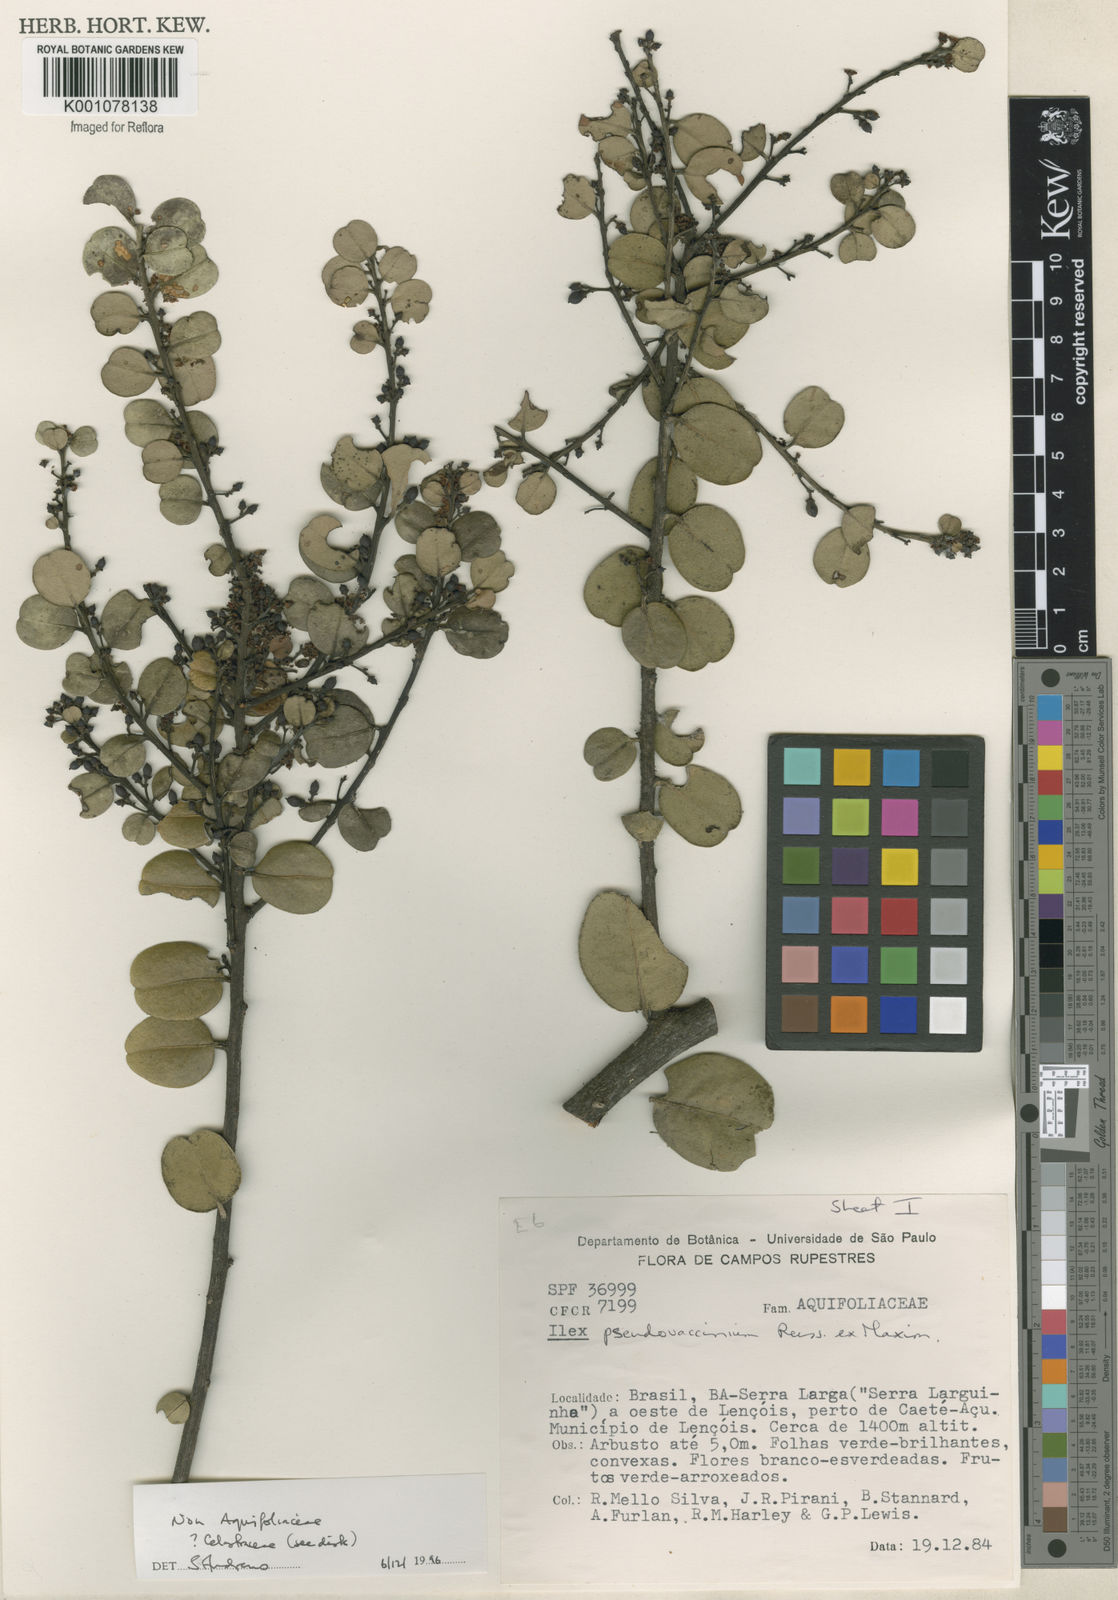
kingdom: Plantae
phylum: Tracheophyta
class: Magnoliopsida
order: Celastrales
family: Celastraceae
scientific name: Celastraceae
